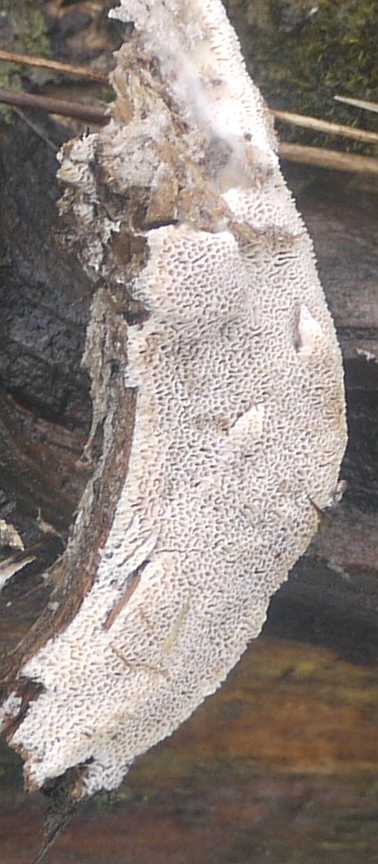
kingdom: Fungi
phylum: Basidiomycota
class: Agaricomycetes
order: Polyporales
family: Fomitopsidaceae
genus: Antrodia
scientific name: Antrodia sinuosa
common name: tømmer-sejporesvamp
